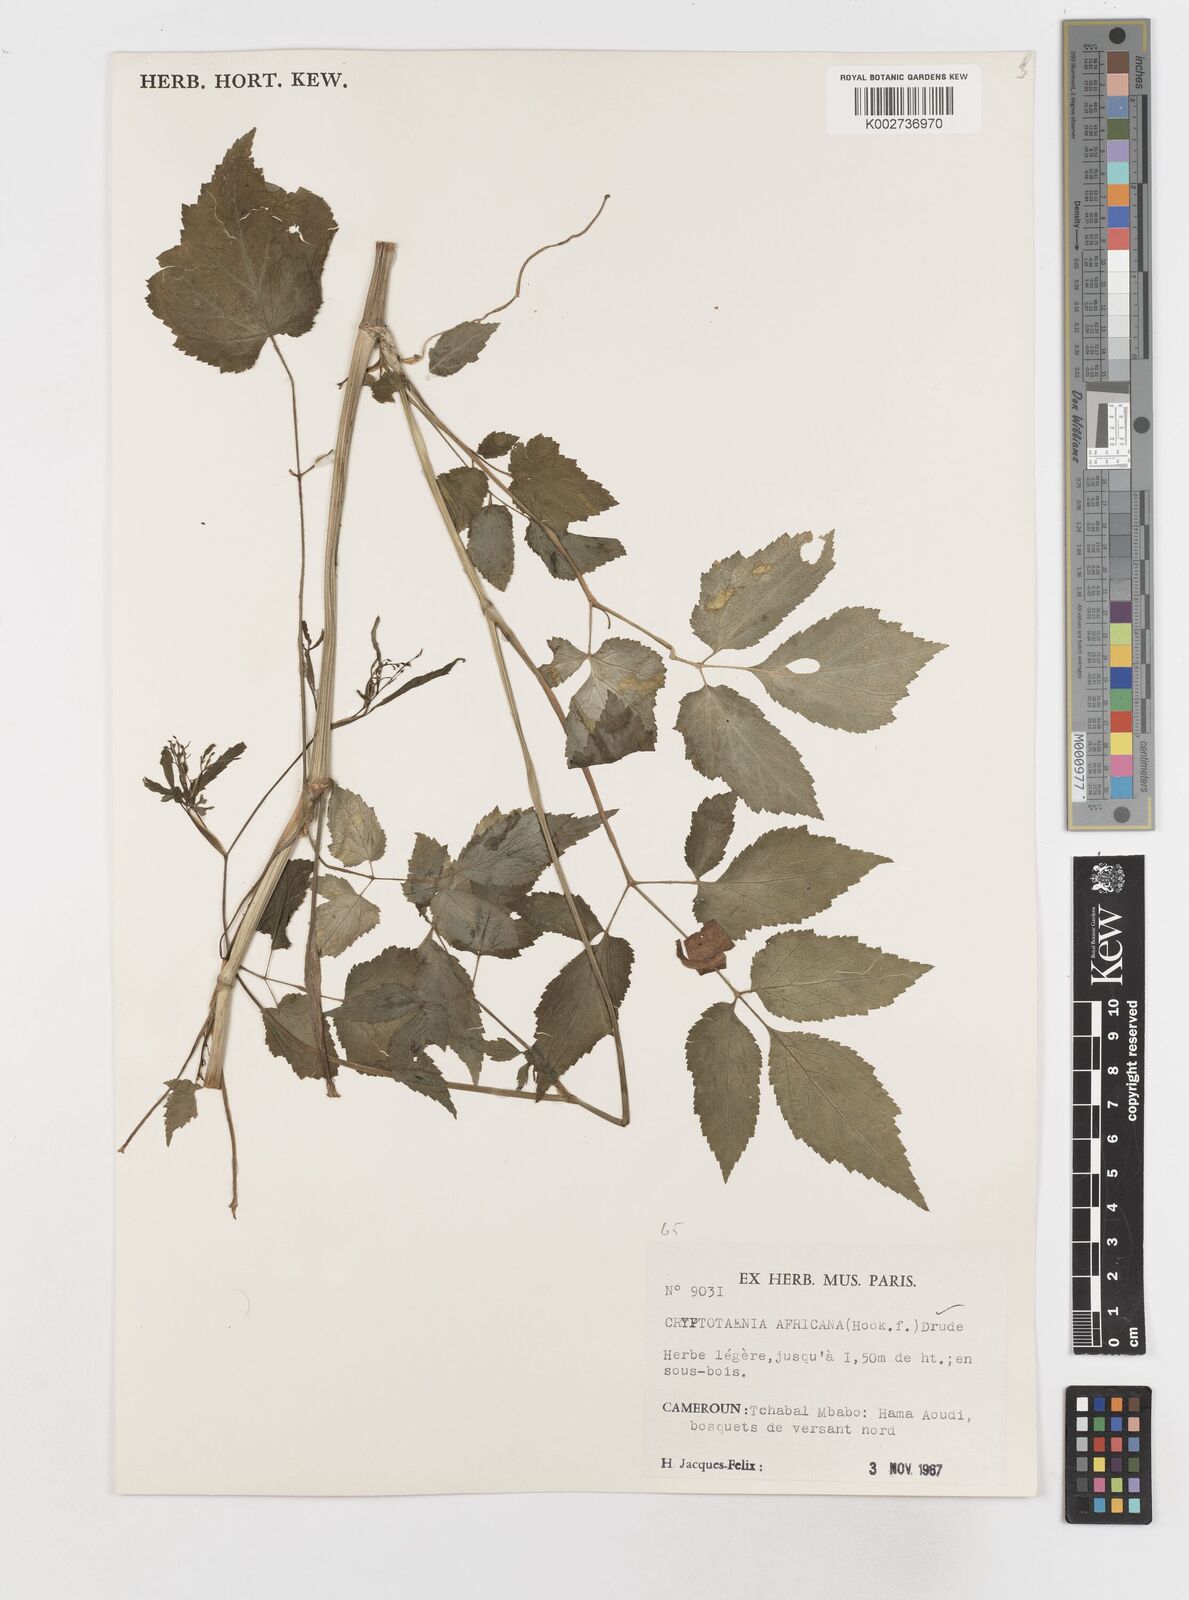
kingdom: Plantae
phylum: Tracheophyta
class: Magnoliopsida
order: Apiales
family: Apiaceae
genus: Cryptotaenia
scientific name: Cryptotaenia africana
